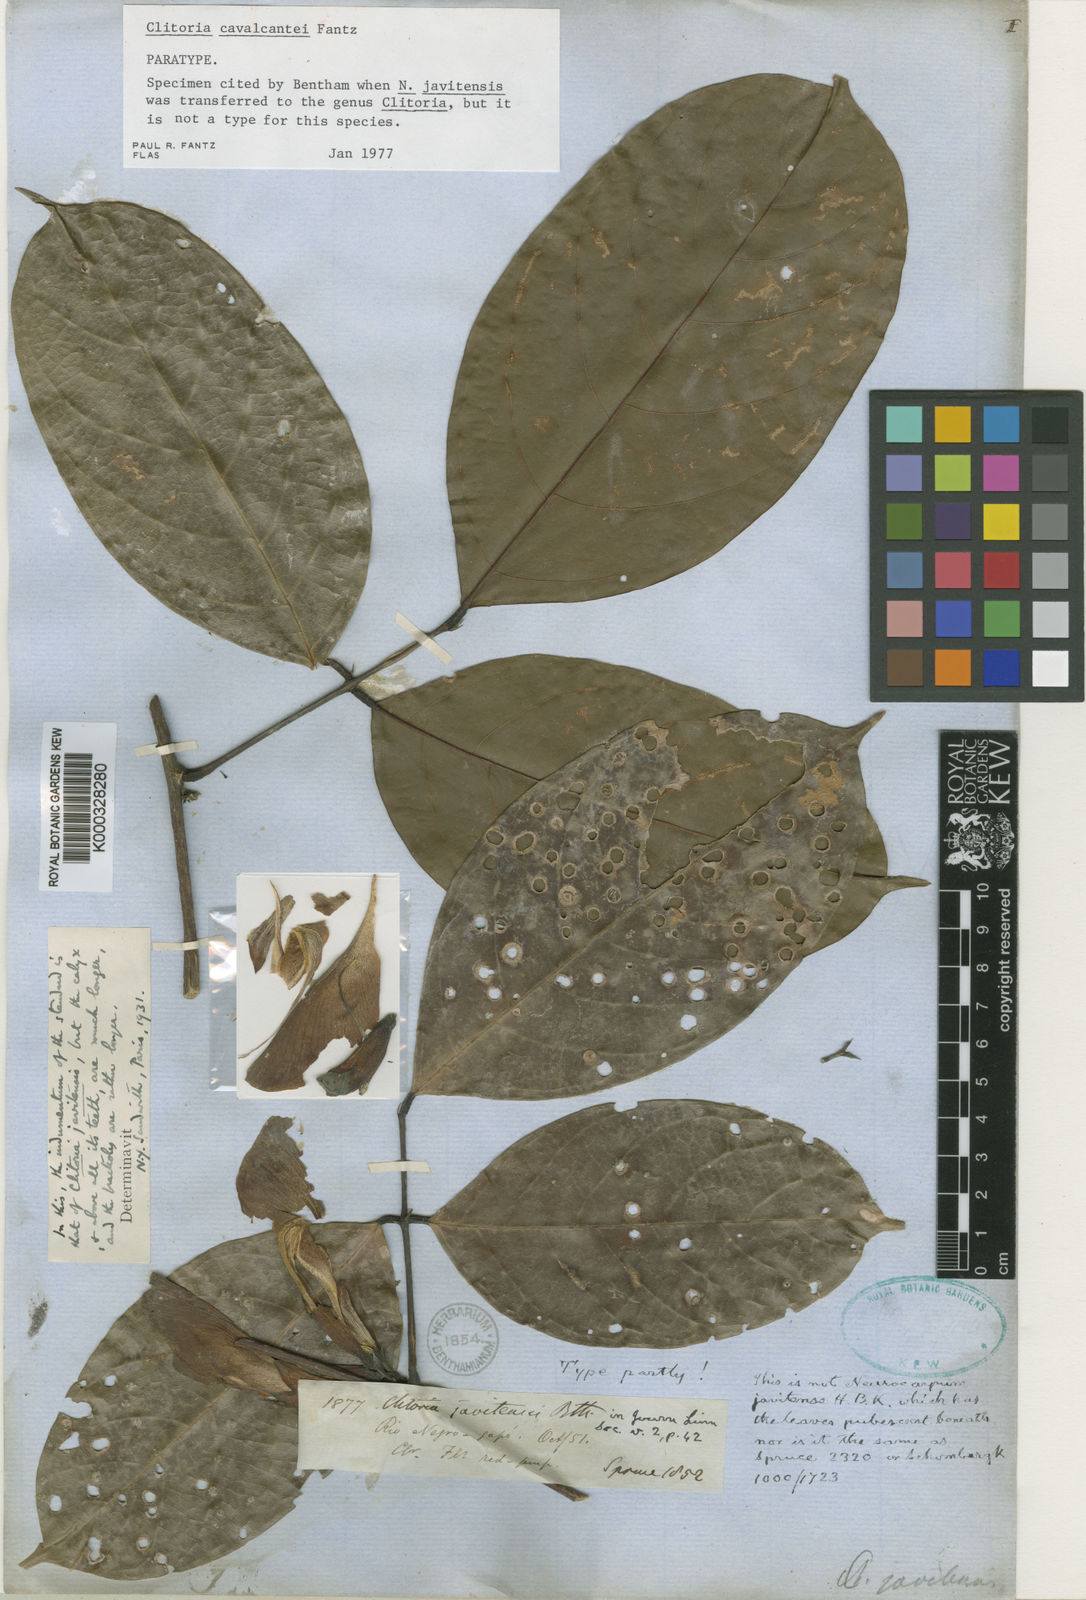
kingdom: Plantae
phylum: Tracheophyta
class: Magnoliopsida
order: Fabales
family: Fabaceae
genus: Clitoria
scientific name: Clitoria cavalcantei
